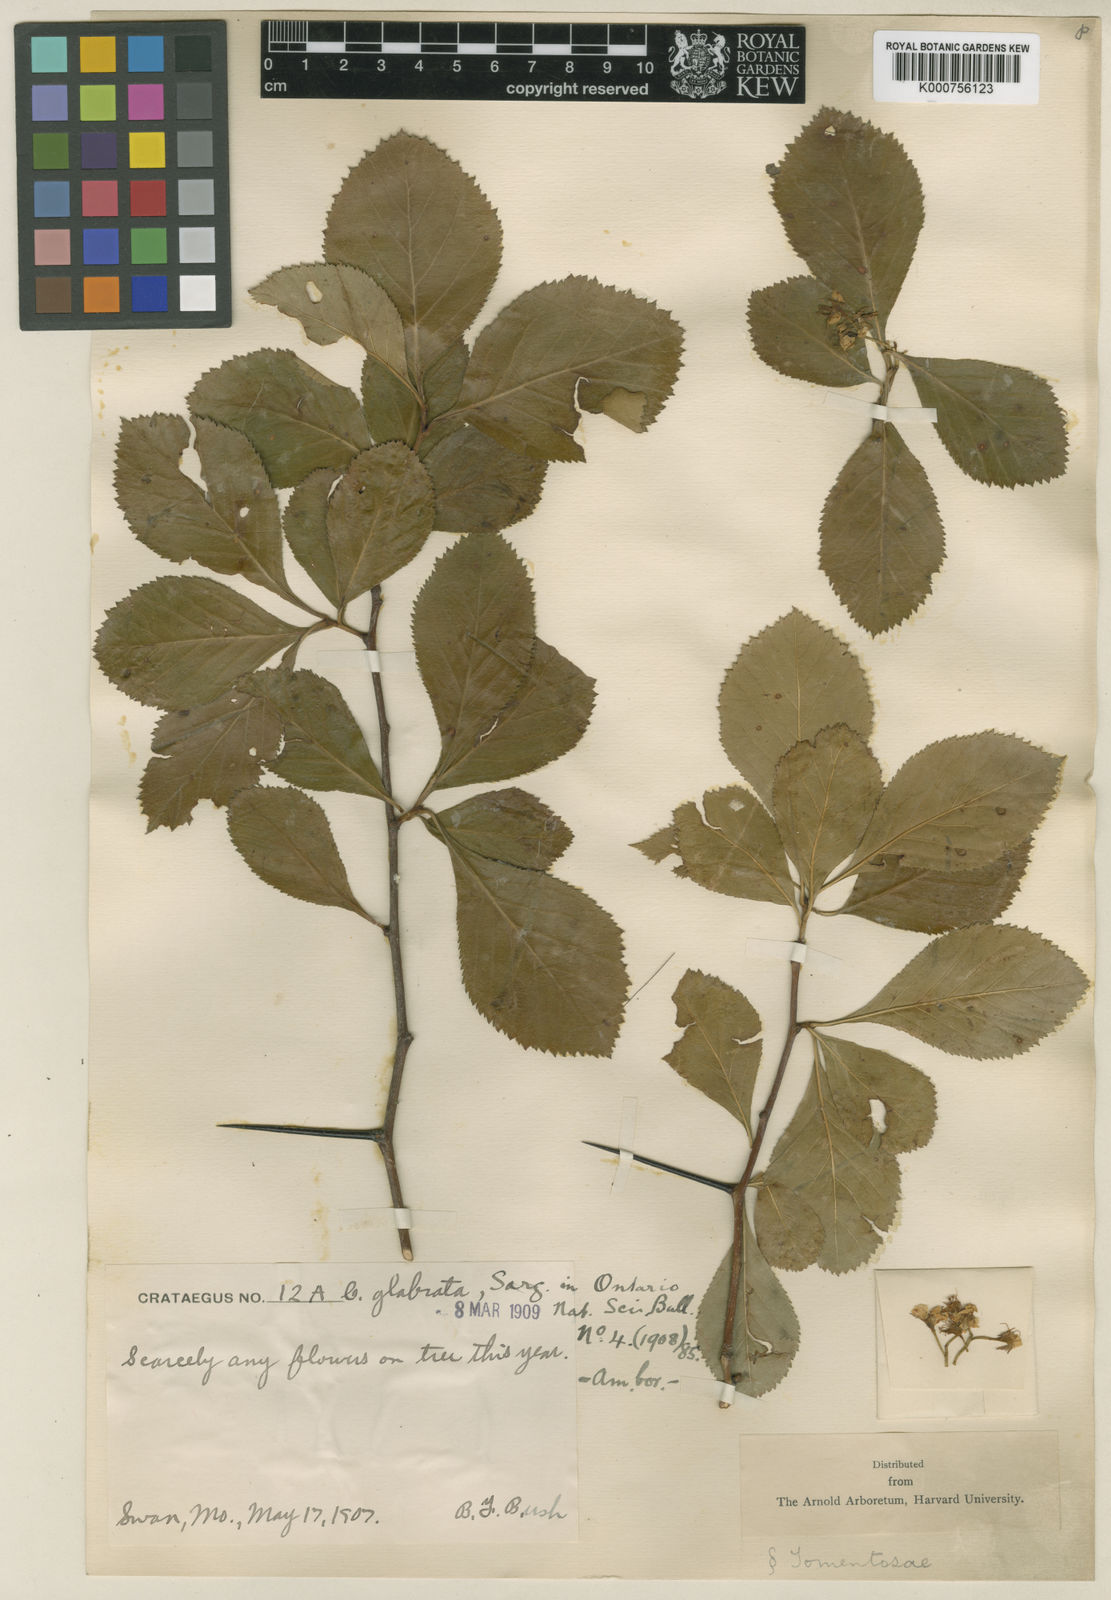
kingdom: Plantae
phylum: Tracheophyta
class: Magnoliopsida
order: Rosales
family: Rosaceae
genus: Crataegus
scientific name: Crataegus glabrata
